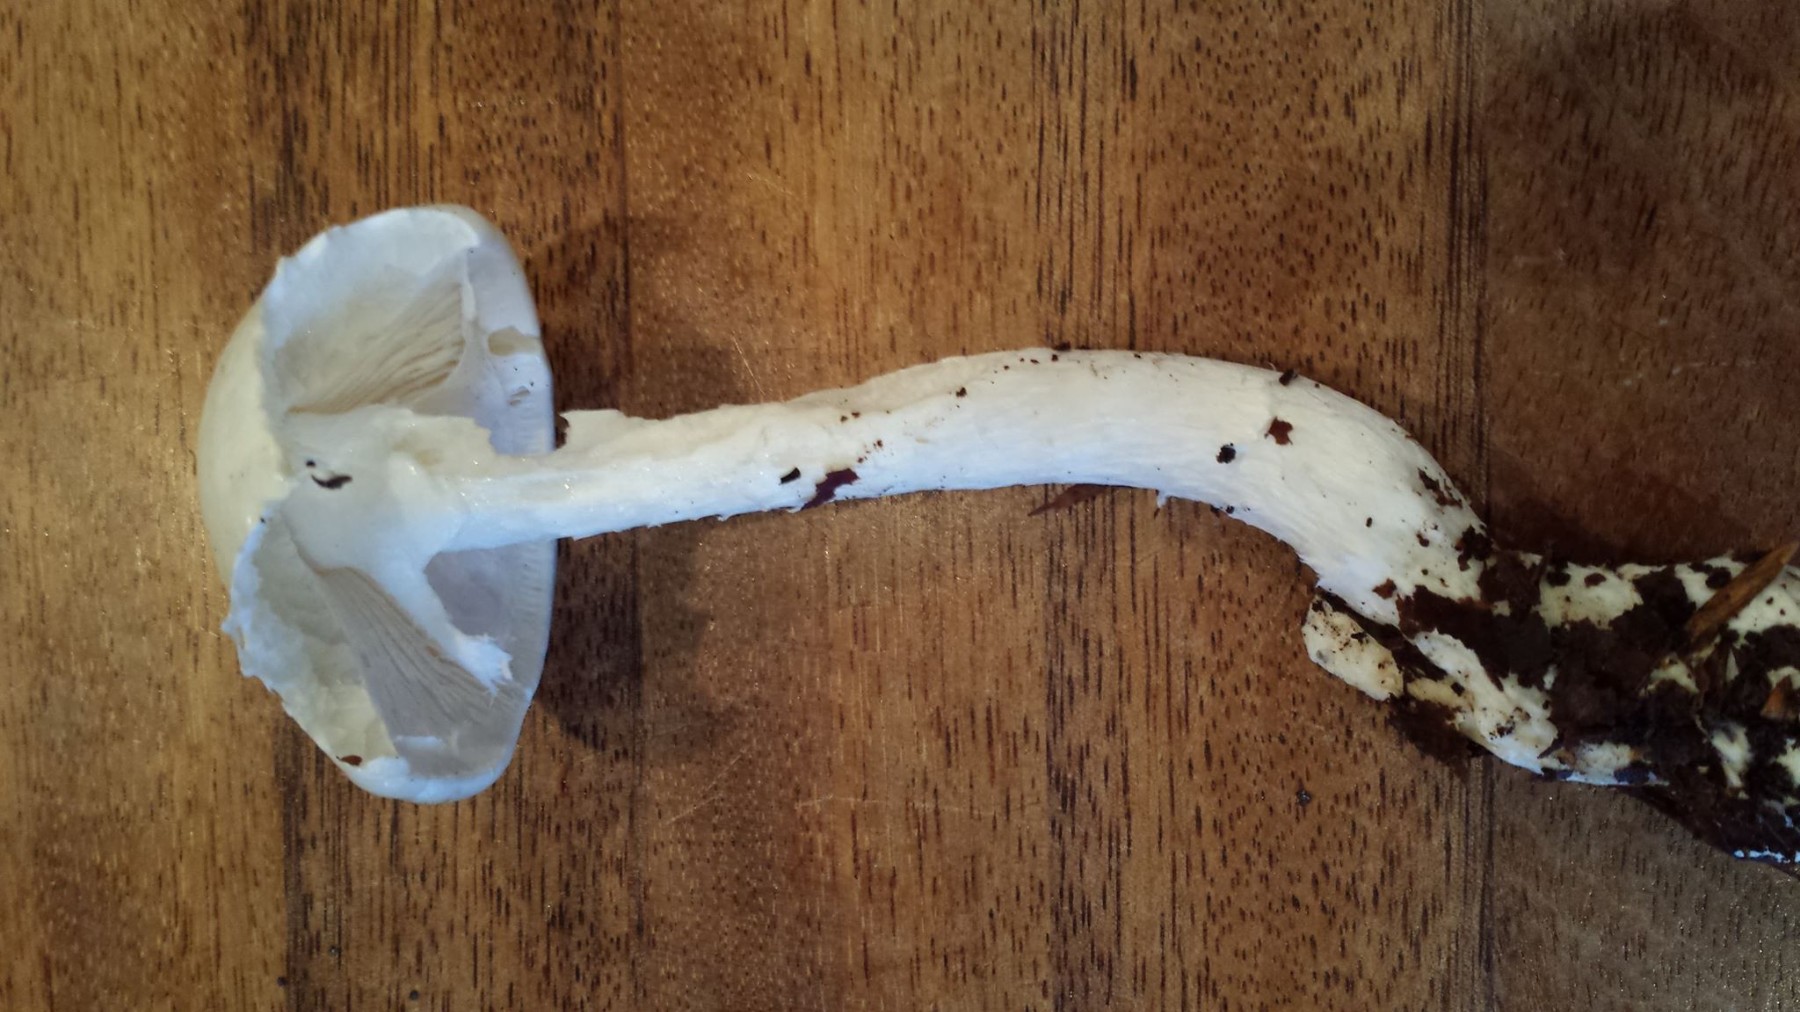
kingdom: Fungi
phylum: Basidiomycota
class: Agaricomycetes
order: Agaricales
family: Amanitaceae
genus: Amanita
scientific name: Amanita virosa
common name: snehvid fluesvamp
